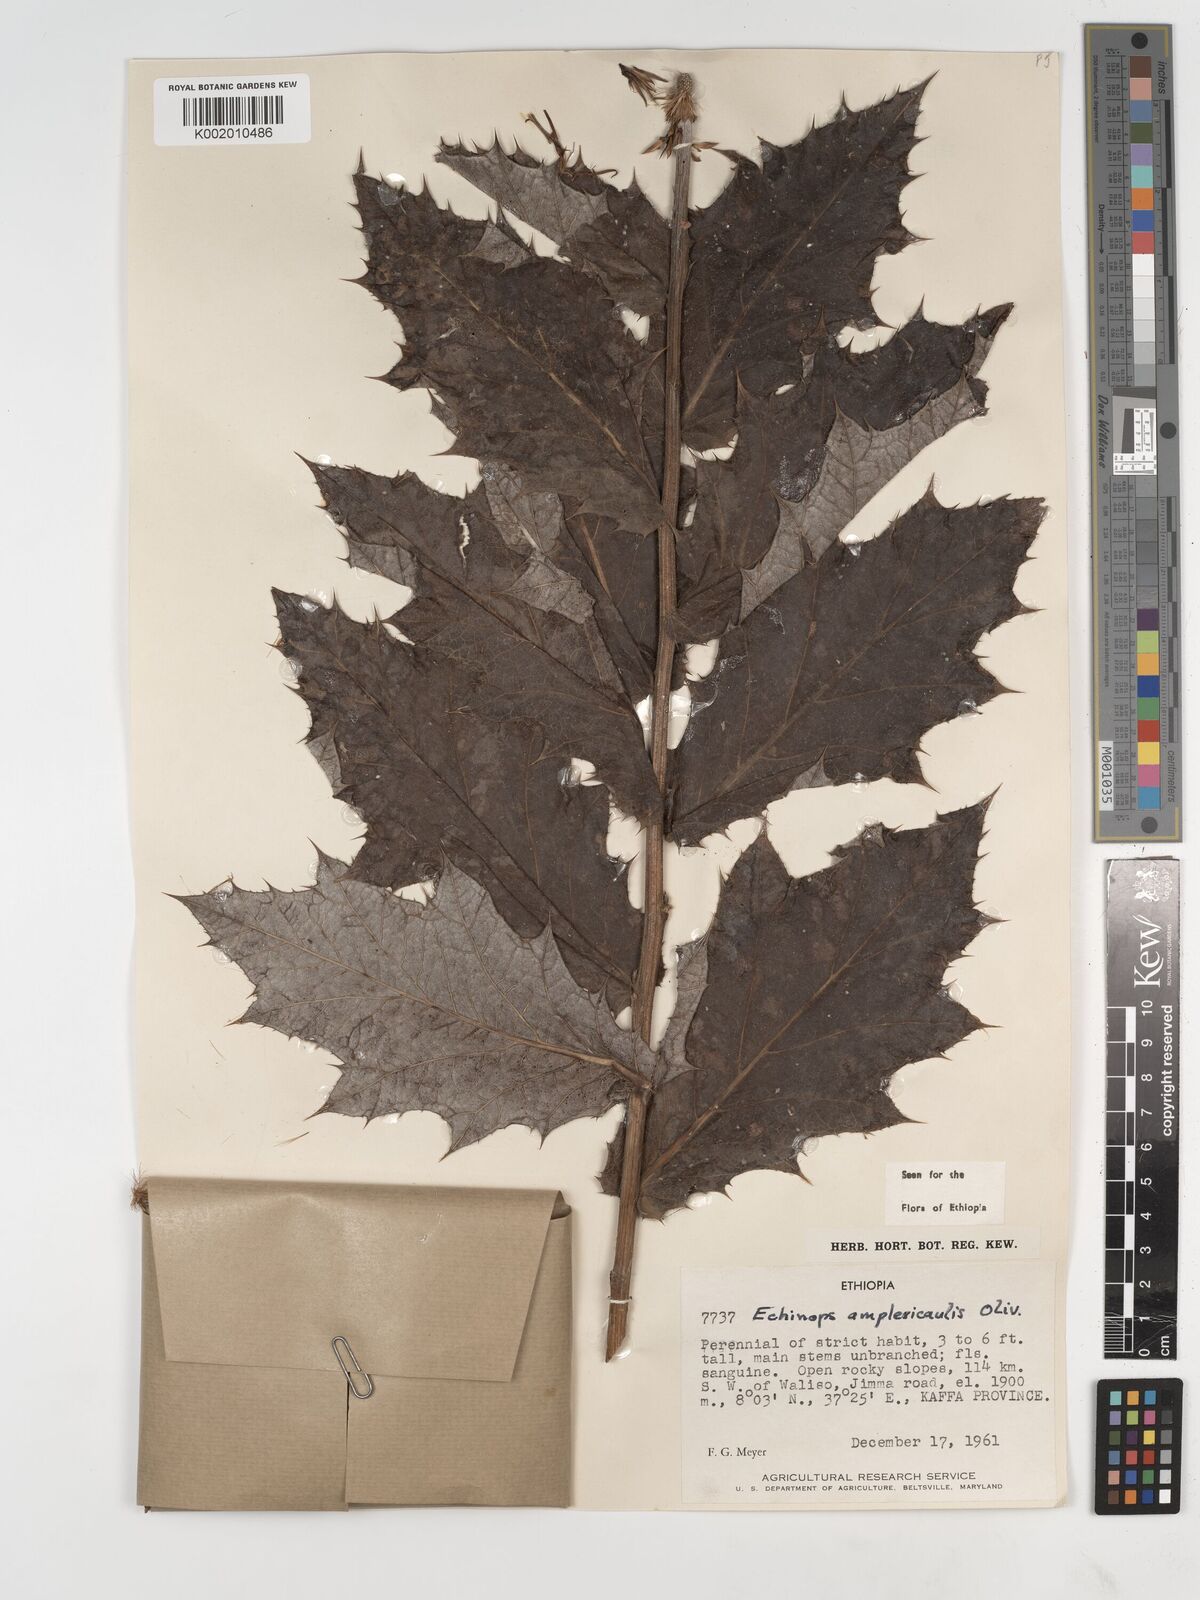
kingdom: Plantae
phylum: Tracheophyta
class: Magnoliopsida
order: Asterales
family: Asteraceae
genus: Echinops
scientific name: Echinops amplexicaulis
